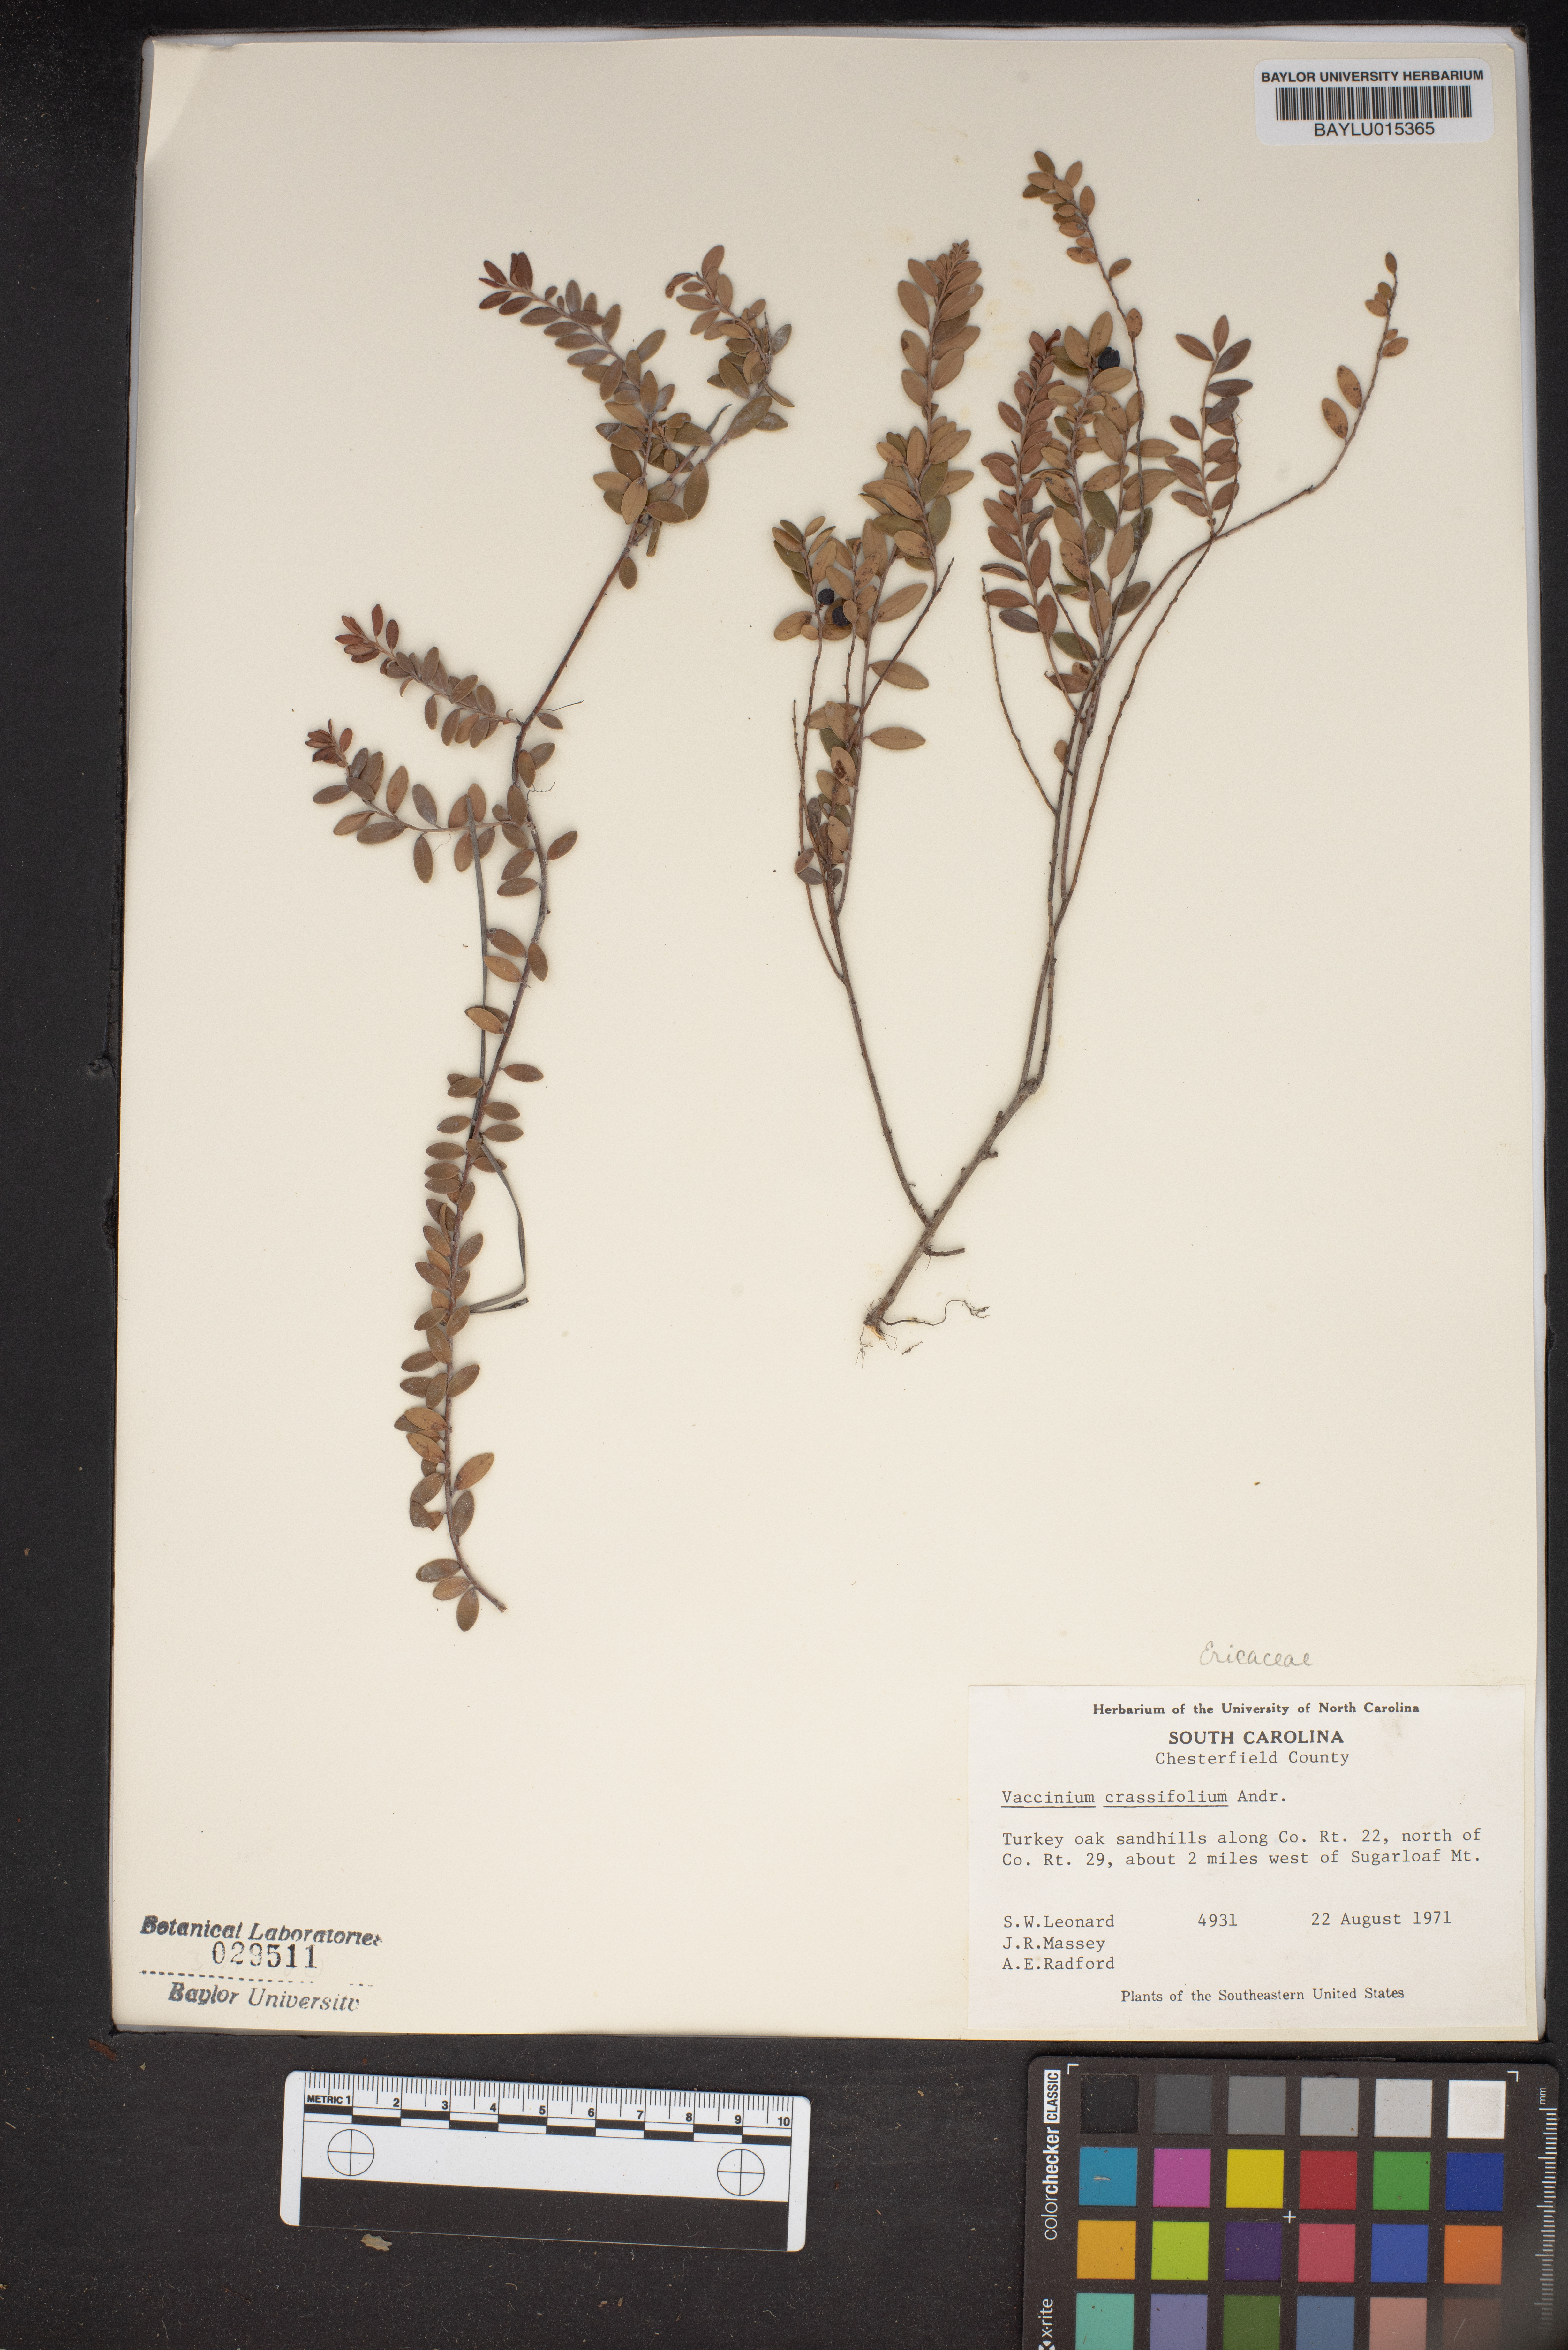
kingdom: Plantae
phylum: Tracheophyta
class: Magnoliopsida
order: Ericales
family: Ericaceae
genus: Vaccinium
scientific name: Vaccinium crassifolium
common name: Creeping blueberry
